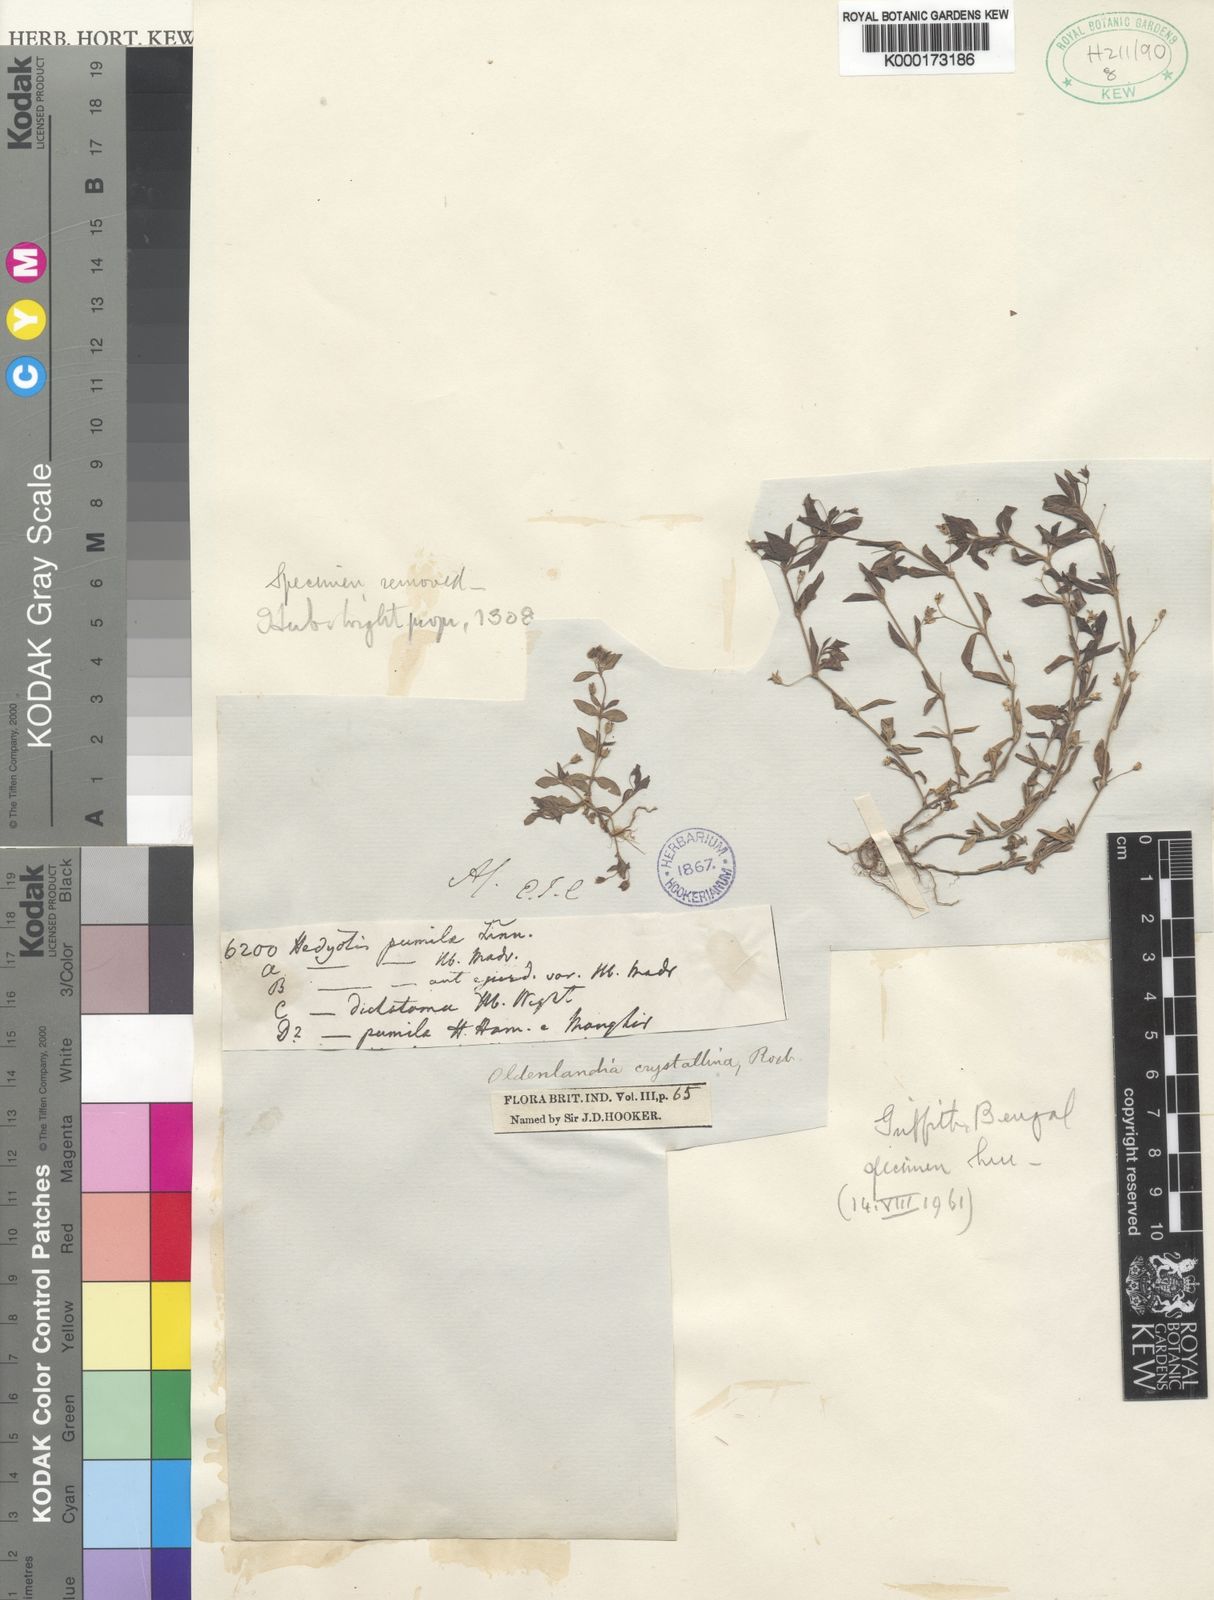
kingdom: Plantae
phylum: Tracheophyta
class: Magnoliopsida
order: Gentianales
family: Rubiaceae
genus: Oldenlandia
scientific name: Oldenlandia pumila
